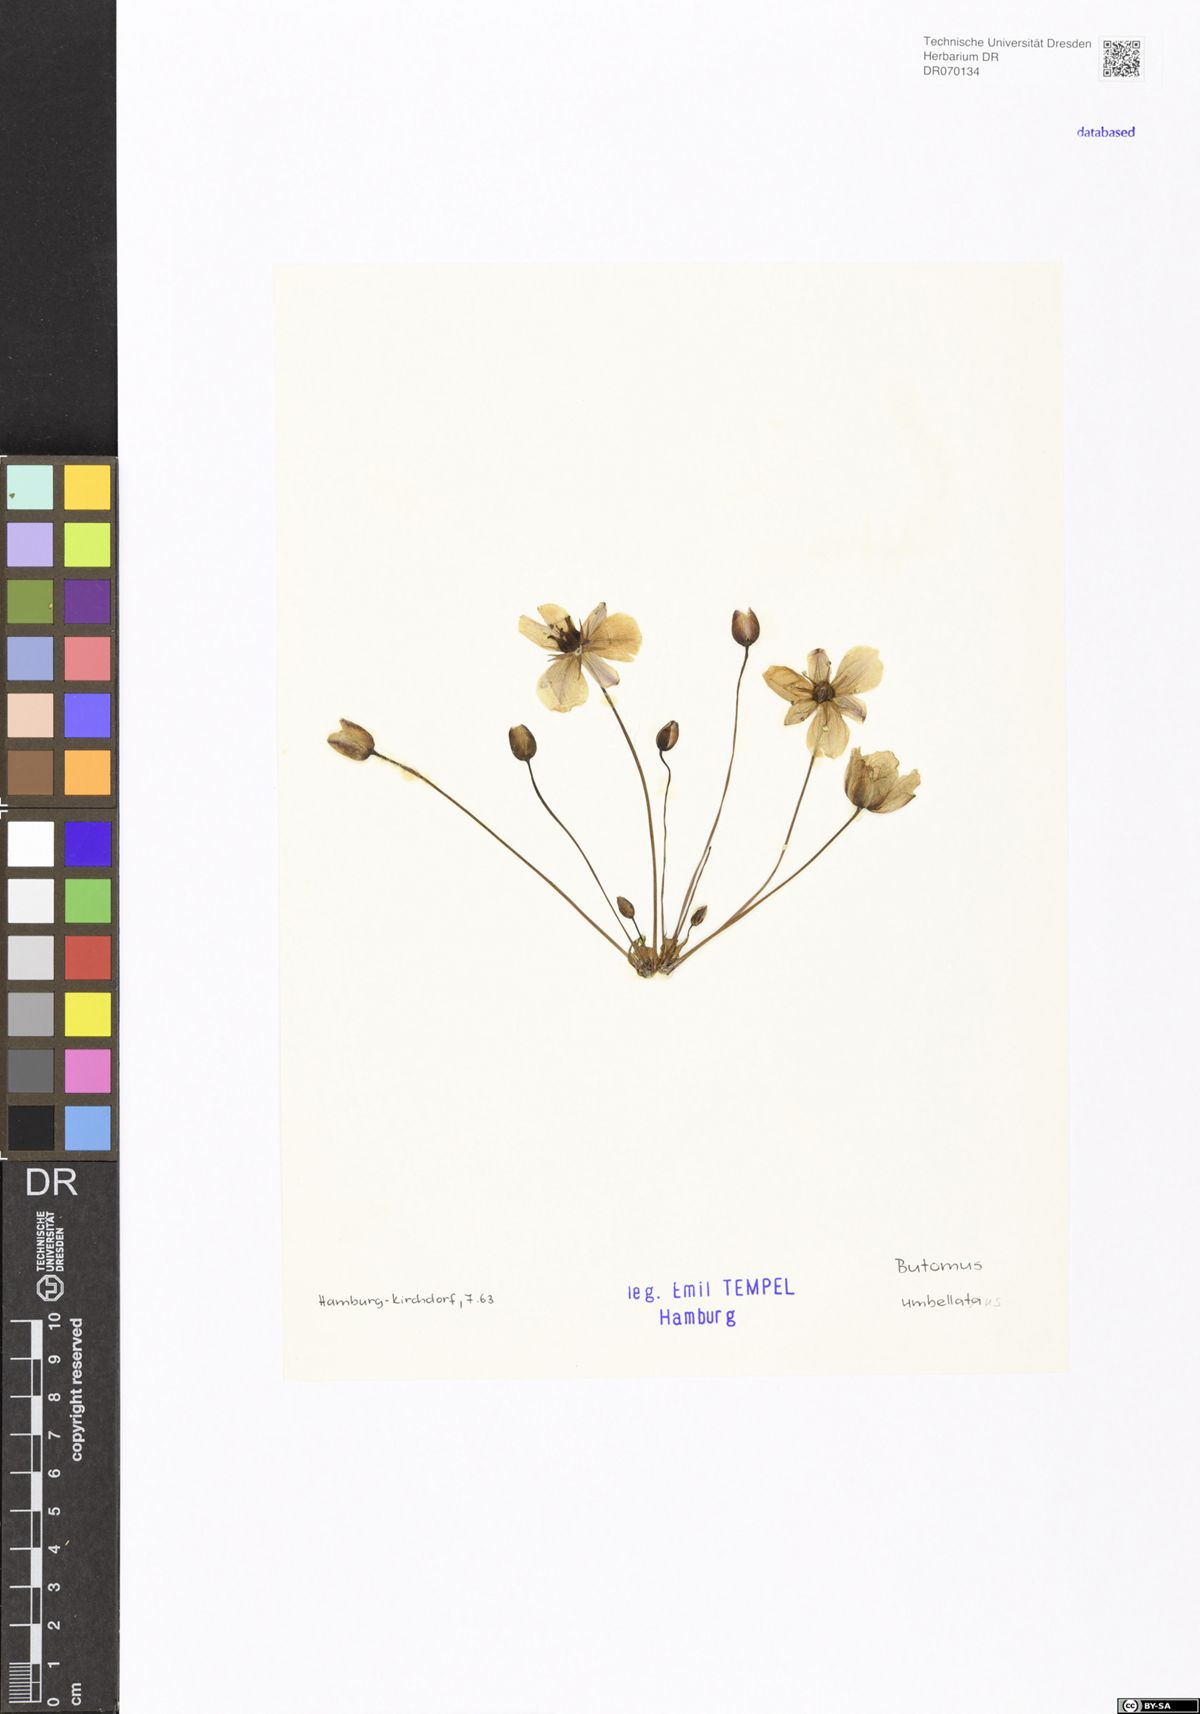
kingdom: Plantae
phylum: Tracheophyta
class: Liliopsida
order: Alismatales
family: Butomaceae
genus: Butomus
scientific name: Butomus umbellatus
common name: Flowering-rush
